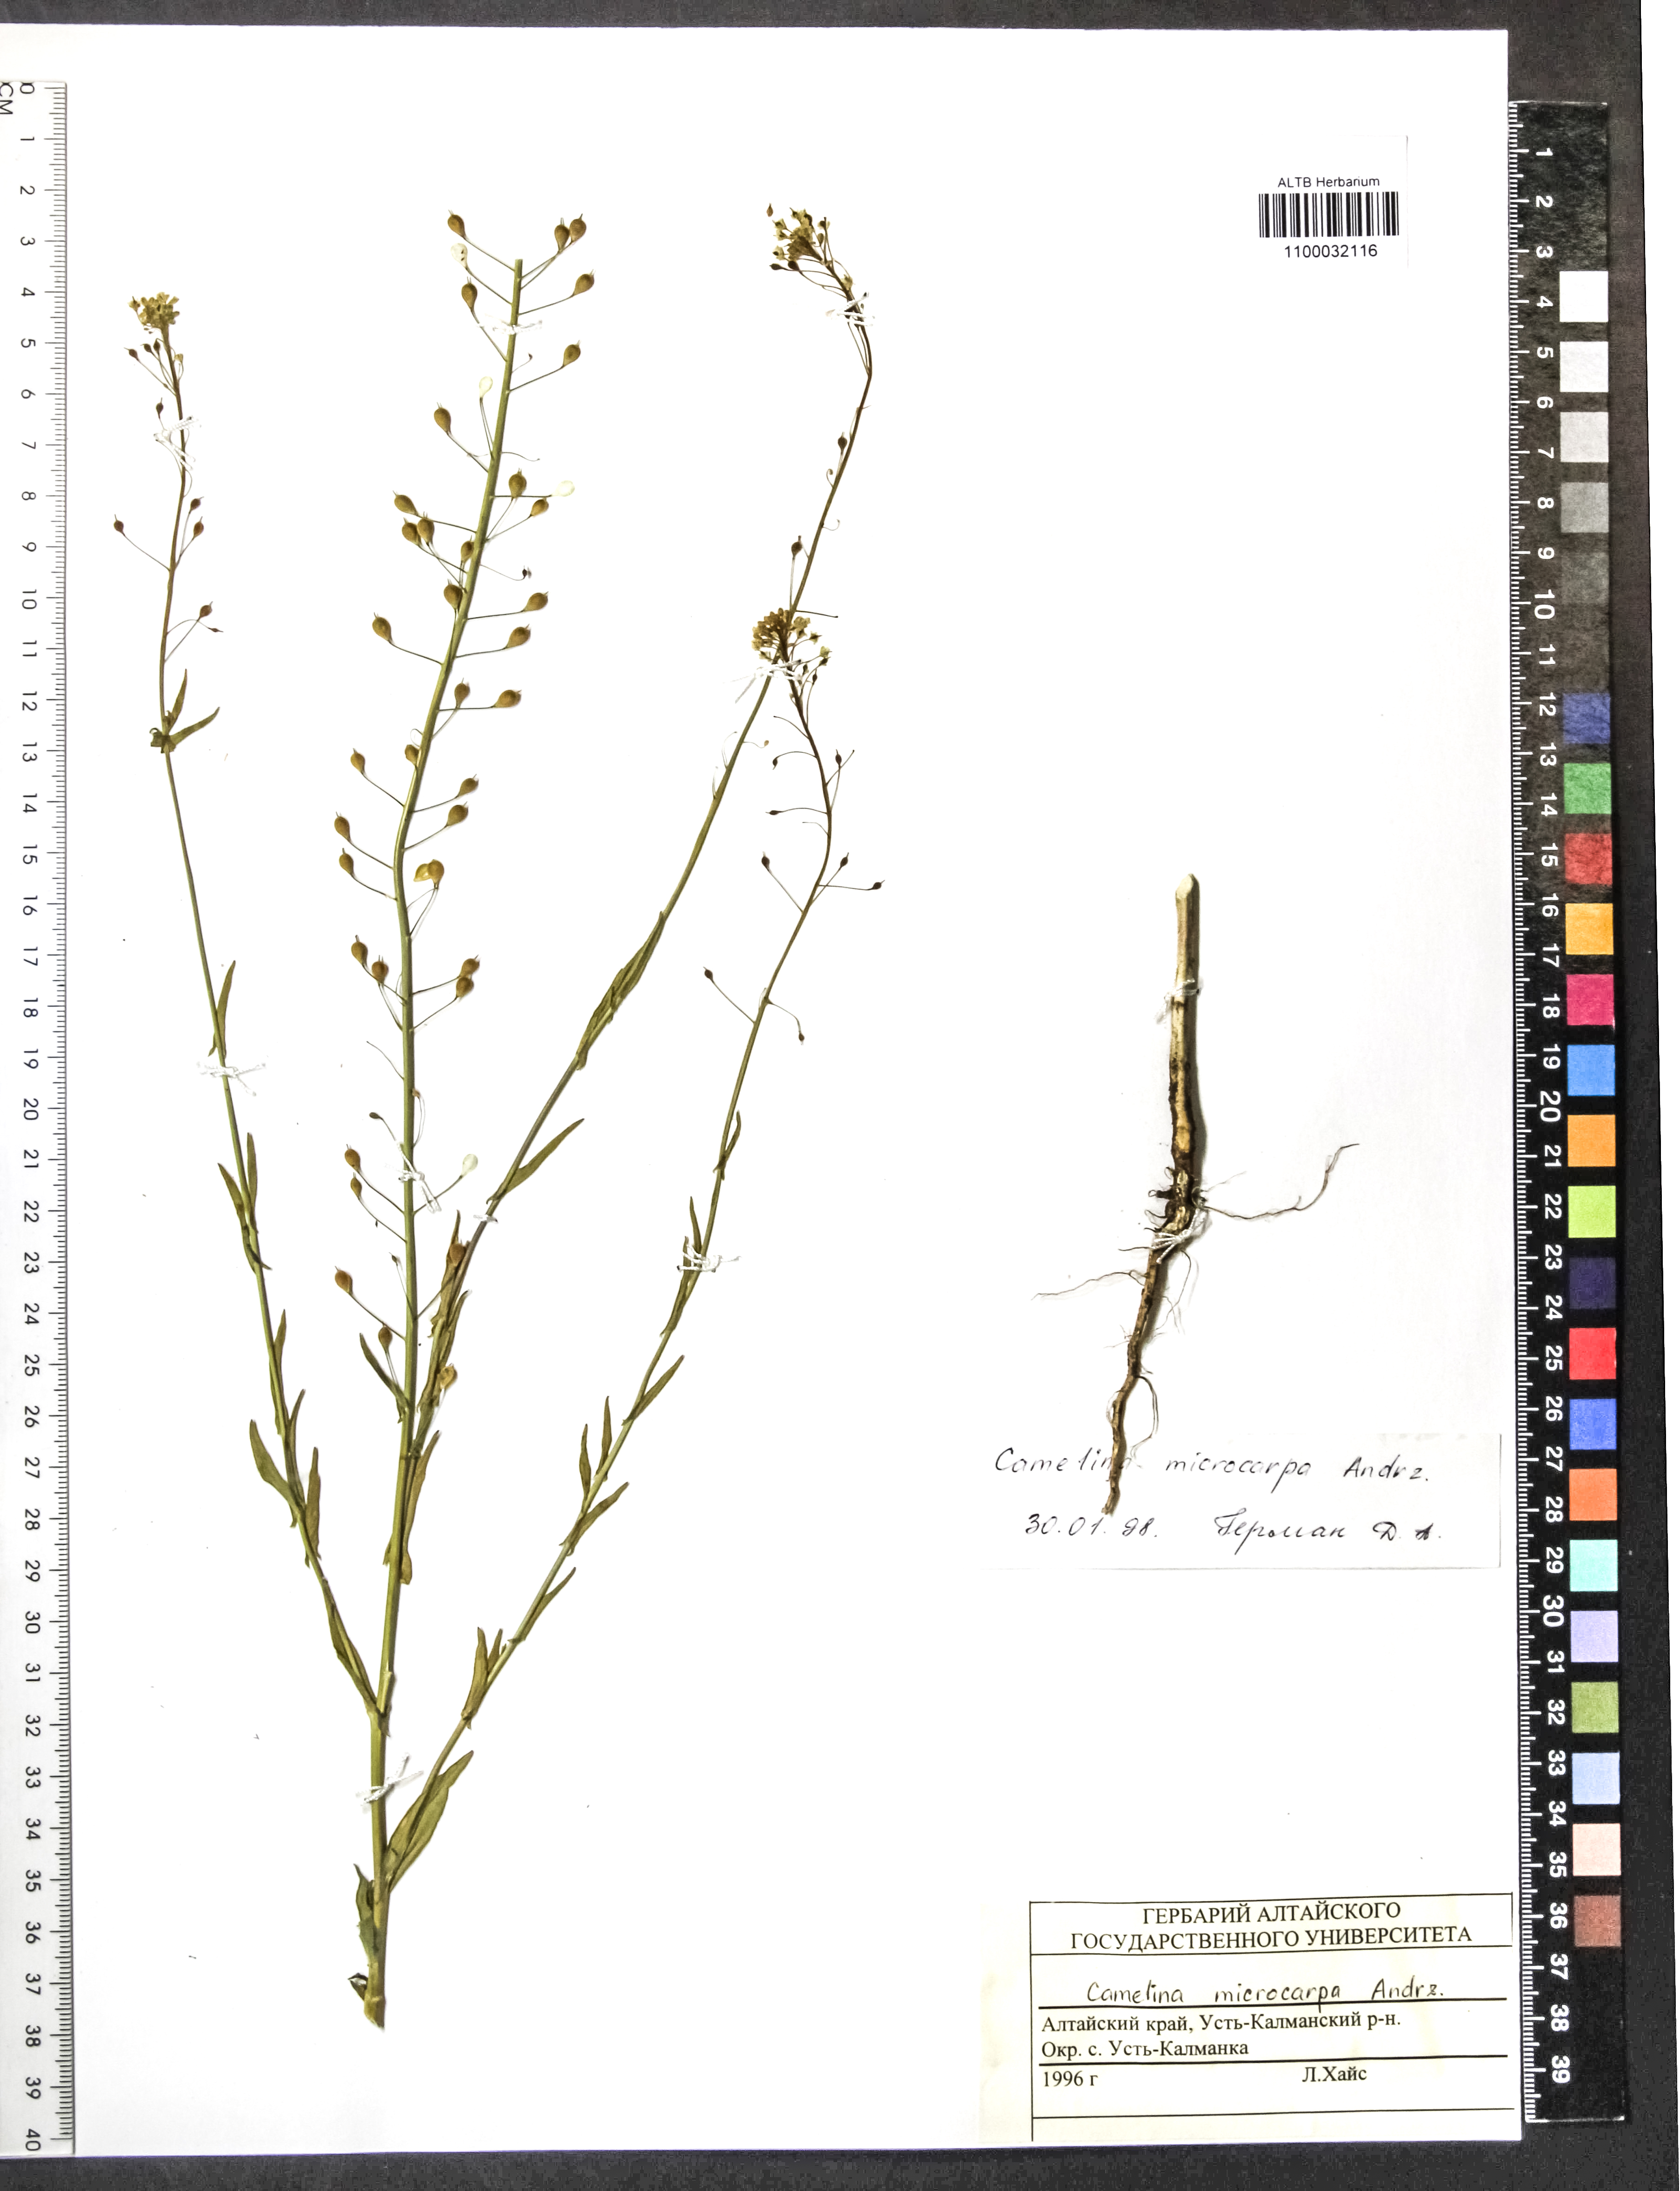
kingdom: Plantae
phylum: Tracheophyta
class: Magnoliopsida
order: Brassicales
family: Brassicaceae
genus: Camelina
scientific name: Camelina microcarpa
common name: Lesser gold-of-pleasure
